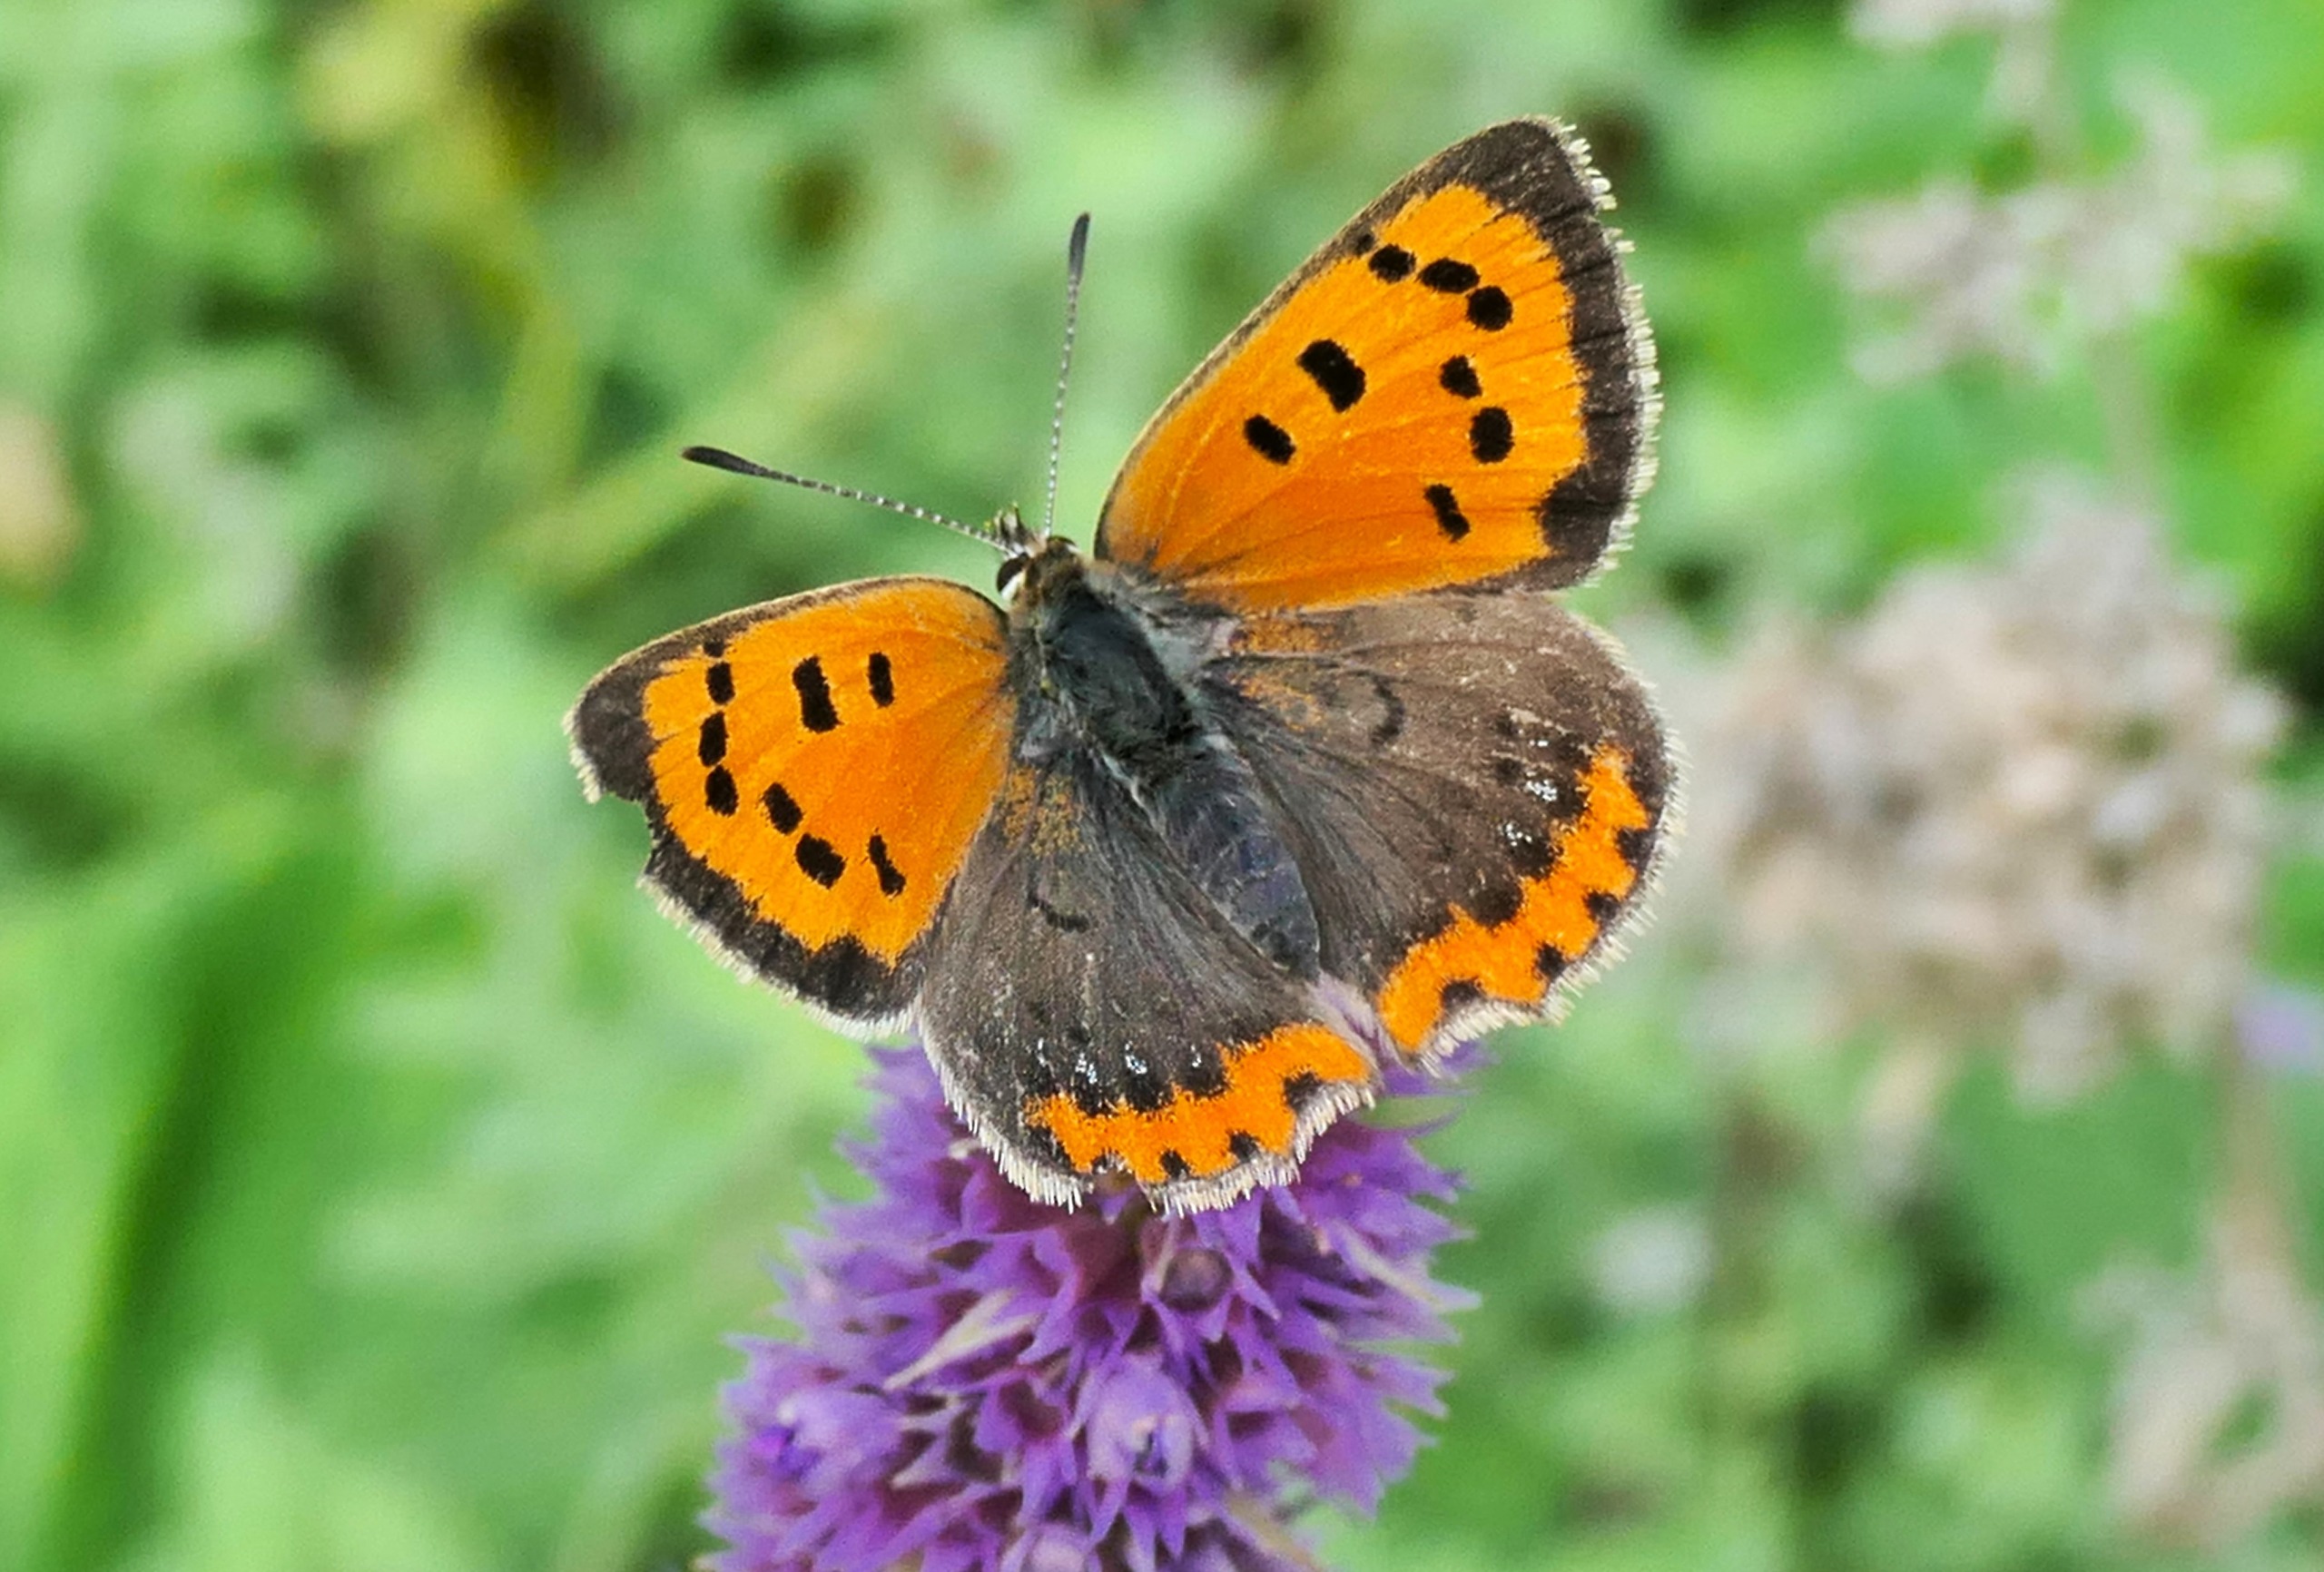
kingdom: Animalia
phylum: Arthropoda
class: Insecta
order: Lepidoptera
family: Lycaenidae
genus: Lycaena
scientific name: Lycaena phlaeas
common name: Lille ildfugl
